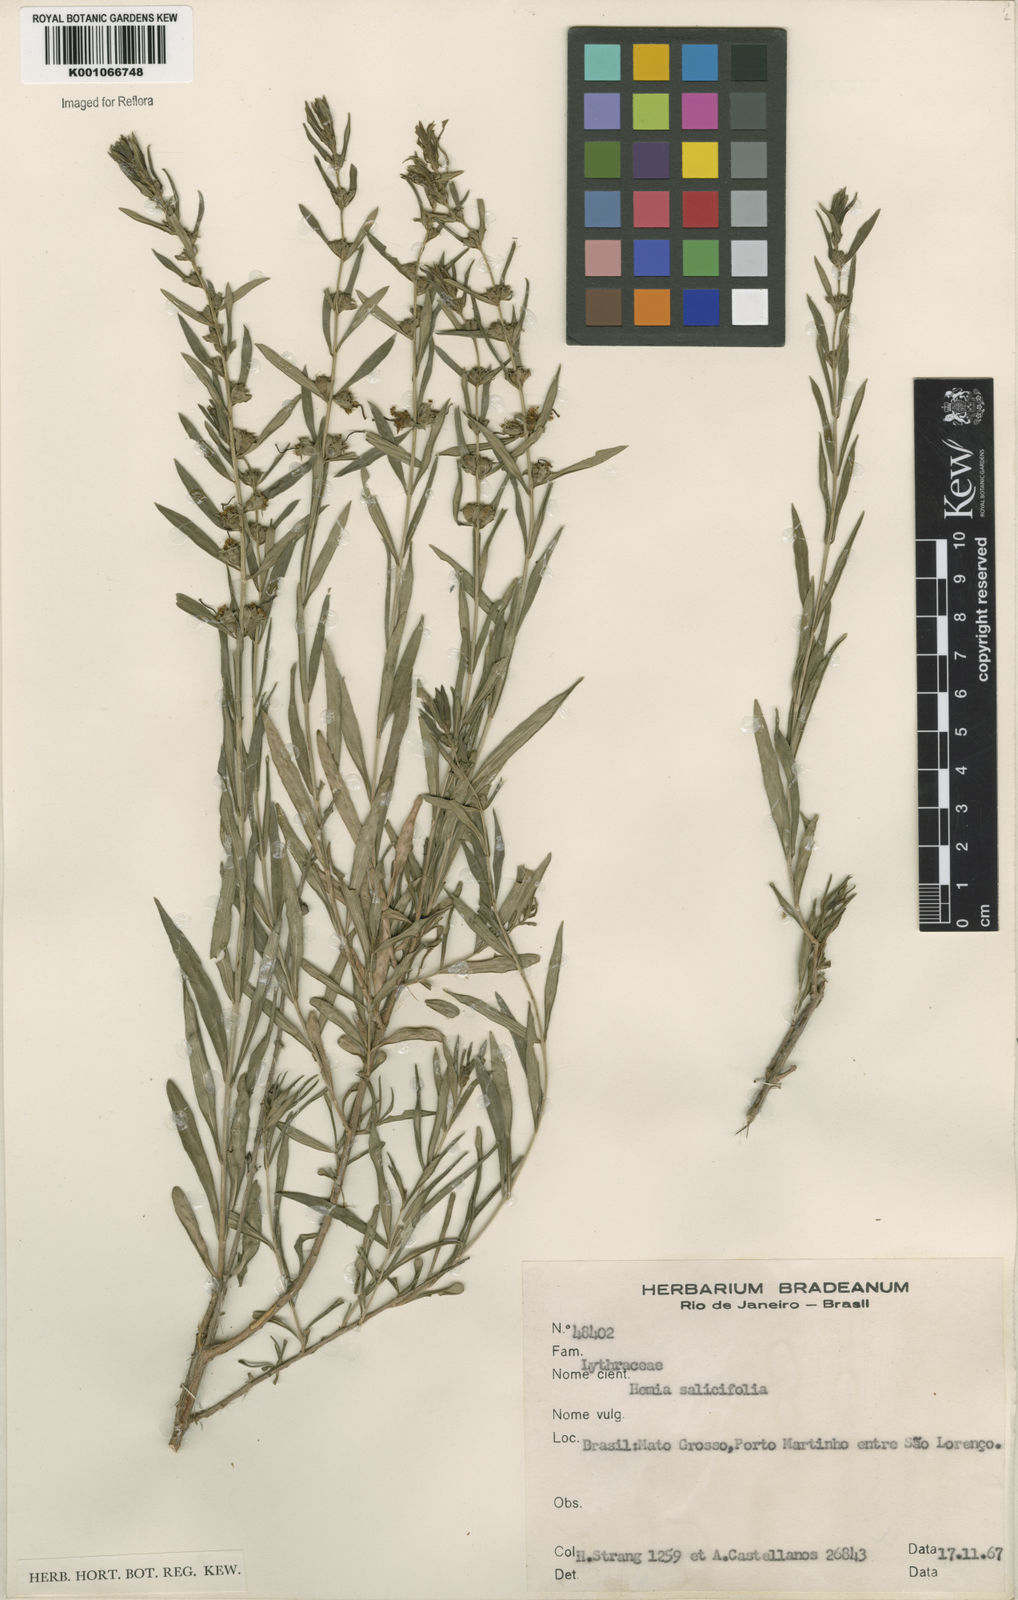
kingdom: Plantae
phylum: Tracheophyta
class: Magnoliopsida
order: Myrtales
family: Lythraceae
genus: Heimia
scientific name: Heimia salicifolia
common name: Willow-leaf heimia
